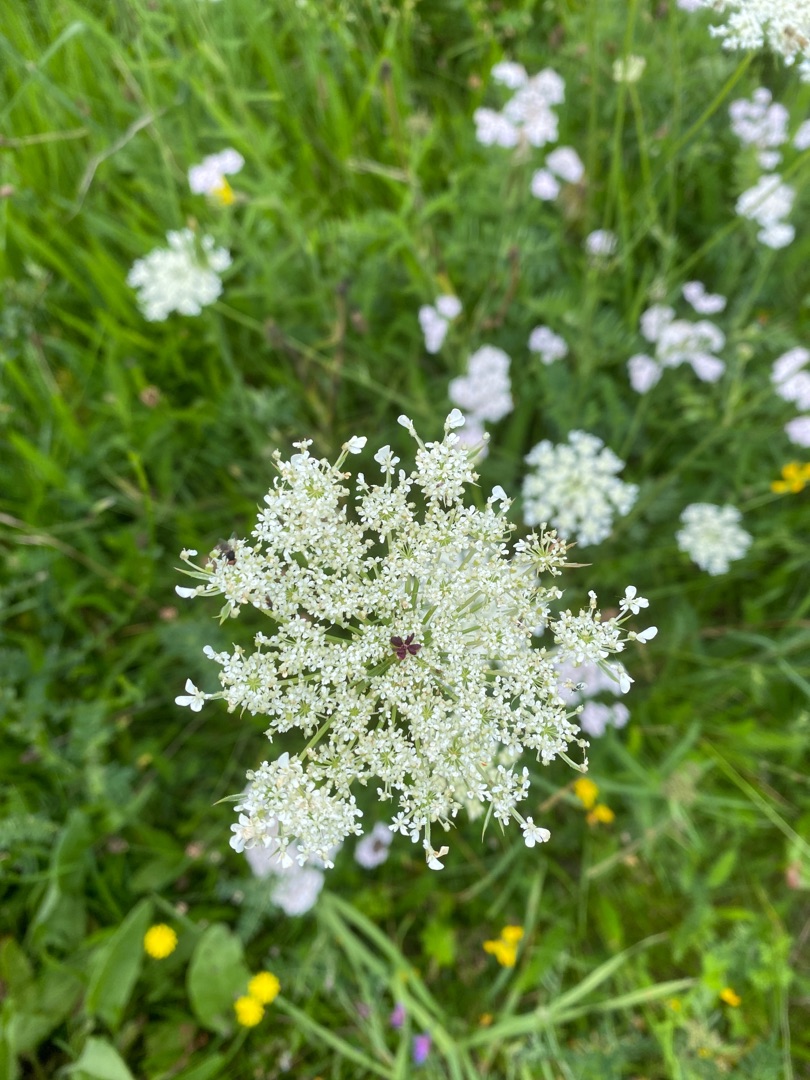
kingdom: Plantae
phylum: Tracheophyta
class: Magnoliopsida
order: Apiales
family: Apiaceae
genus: Daucus
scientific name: Daucus carota
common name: Vild gulerod
